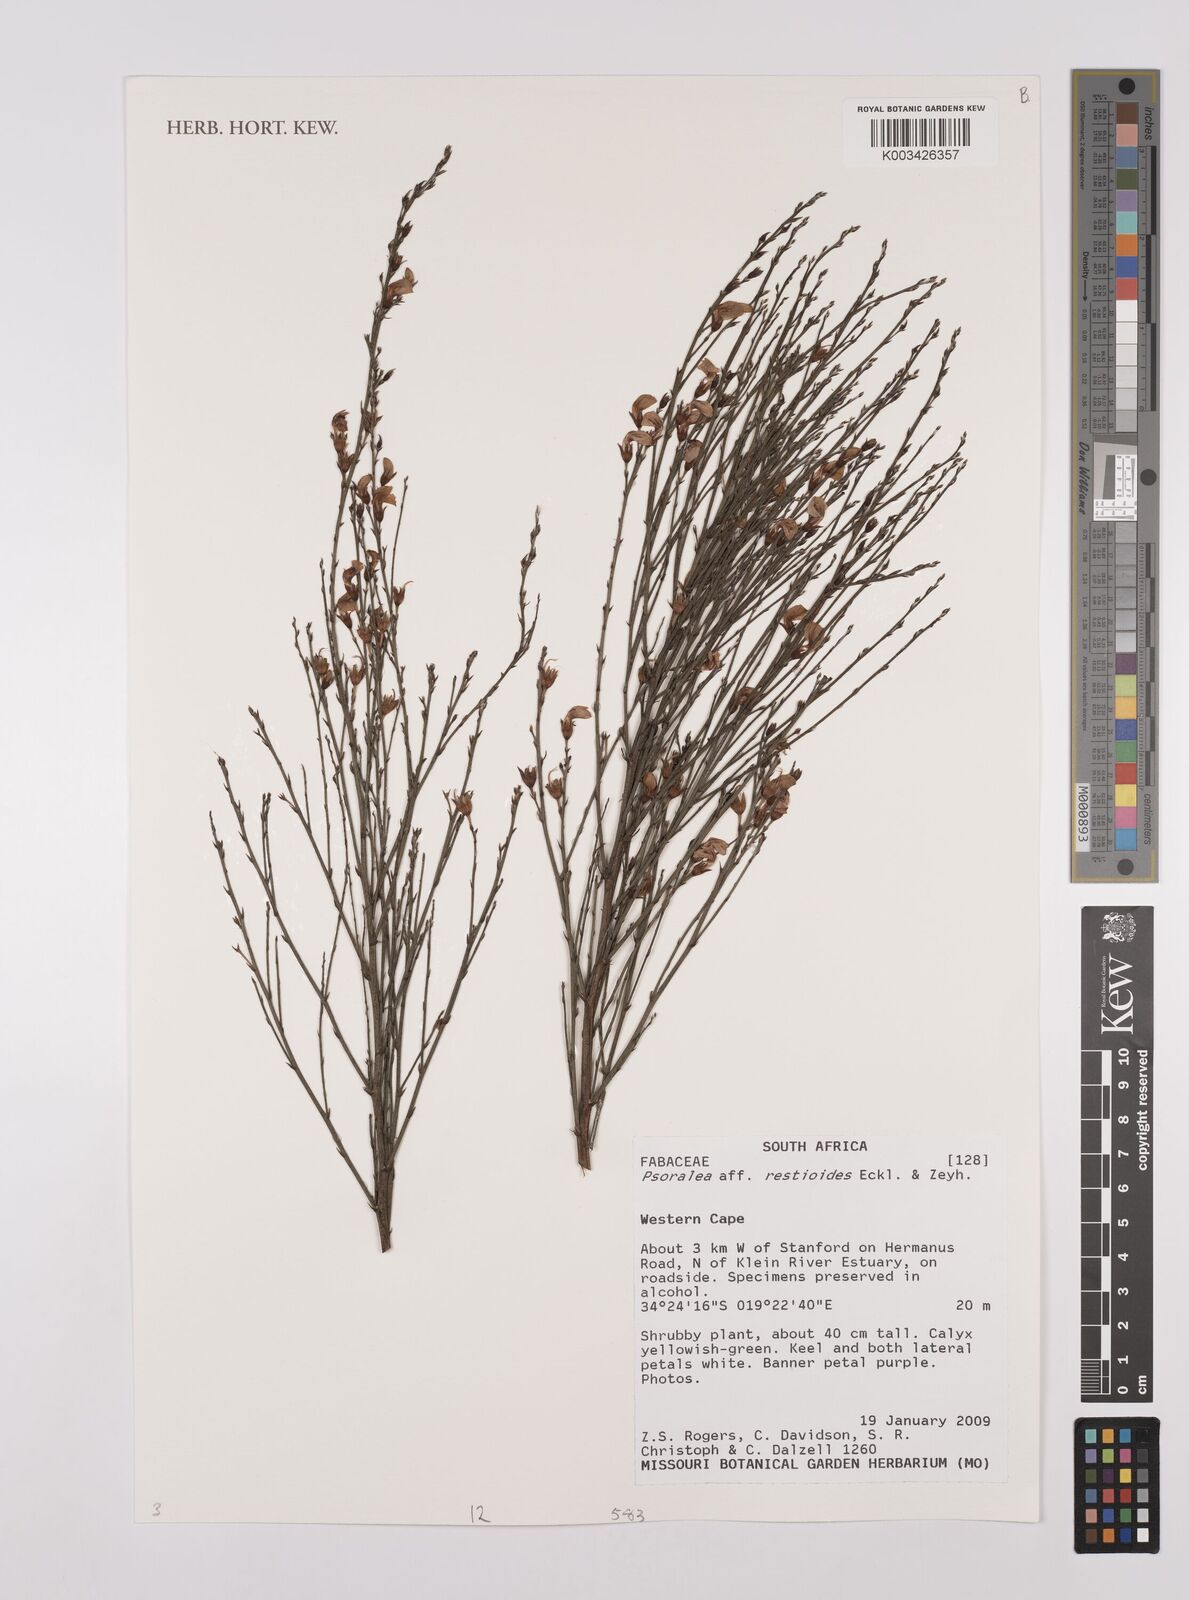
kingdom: Plantae
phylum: Tracheophyta
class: Magnoliopsida
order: Fabales
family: Fabaceae
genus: Psoralea
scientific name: Psoralea restioides
